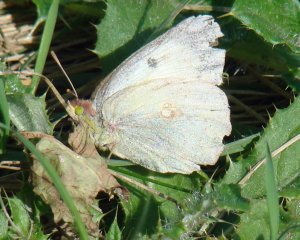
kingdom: Animalia
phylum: Arthropoda
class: Insecta
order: Lepidoptera
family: Pieridae
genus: Colias
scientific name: Colias philodice
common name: Clouded Sulphur
